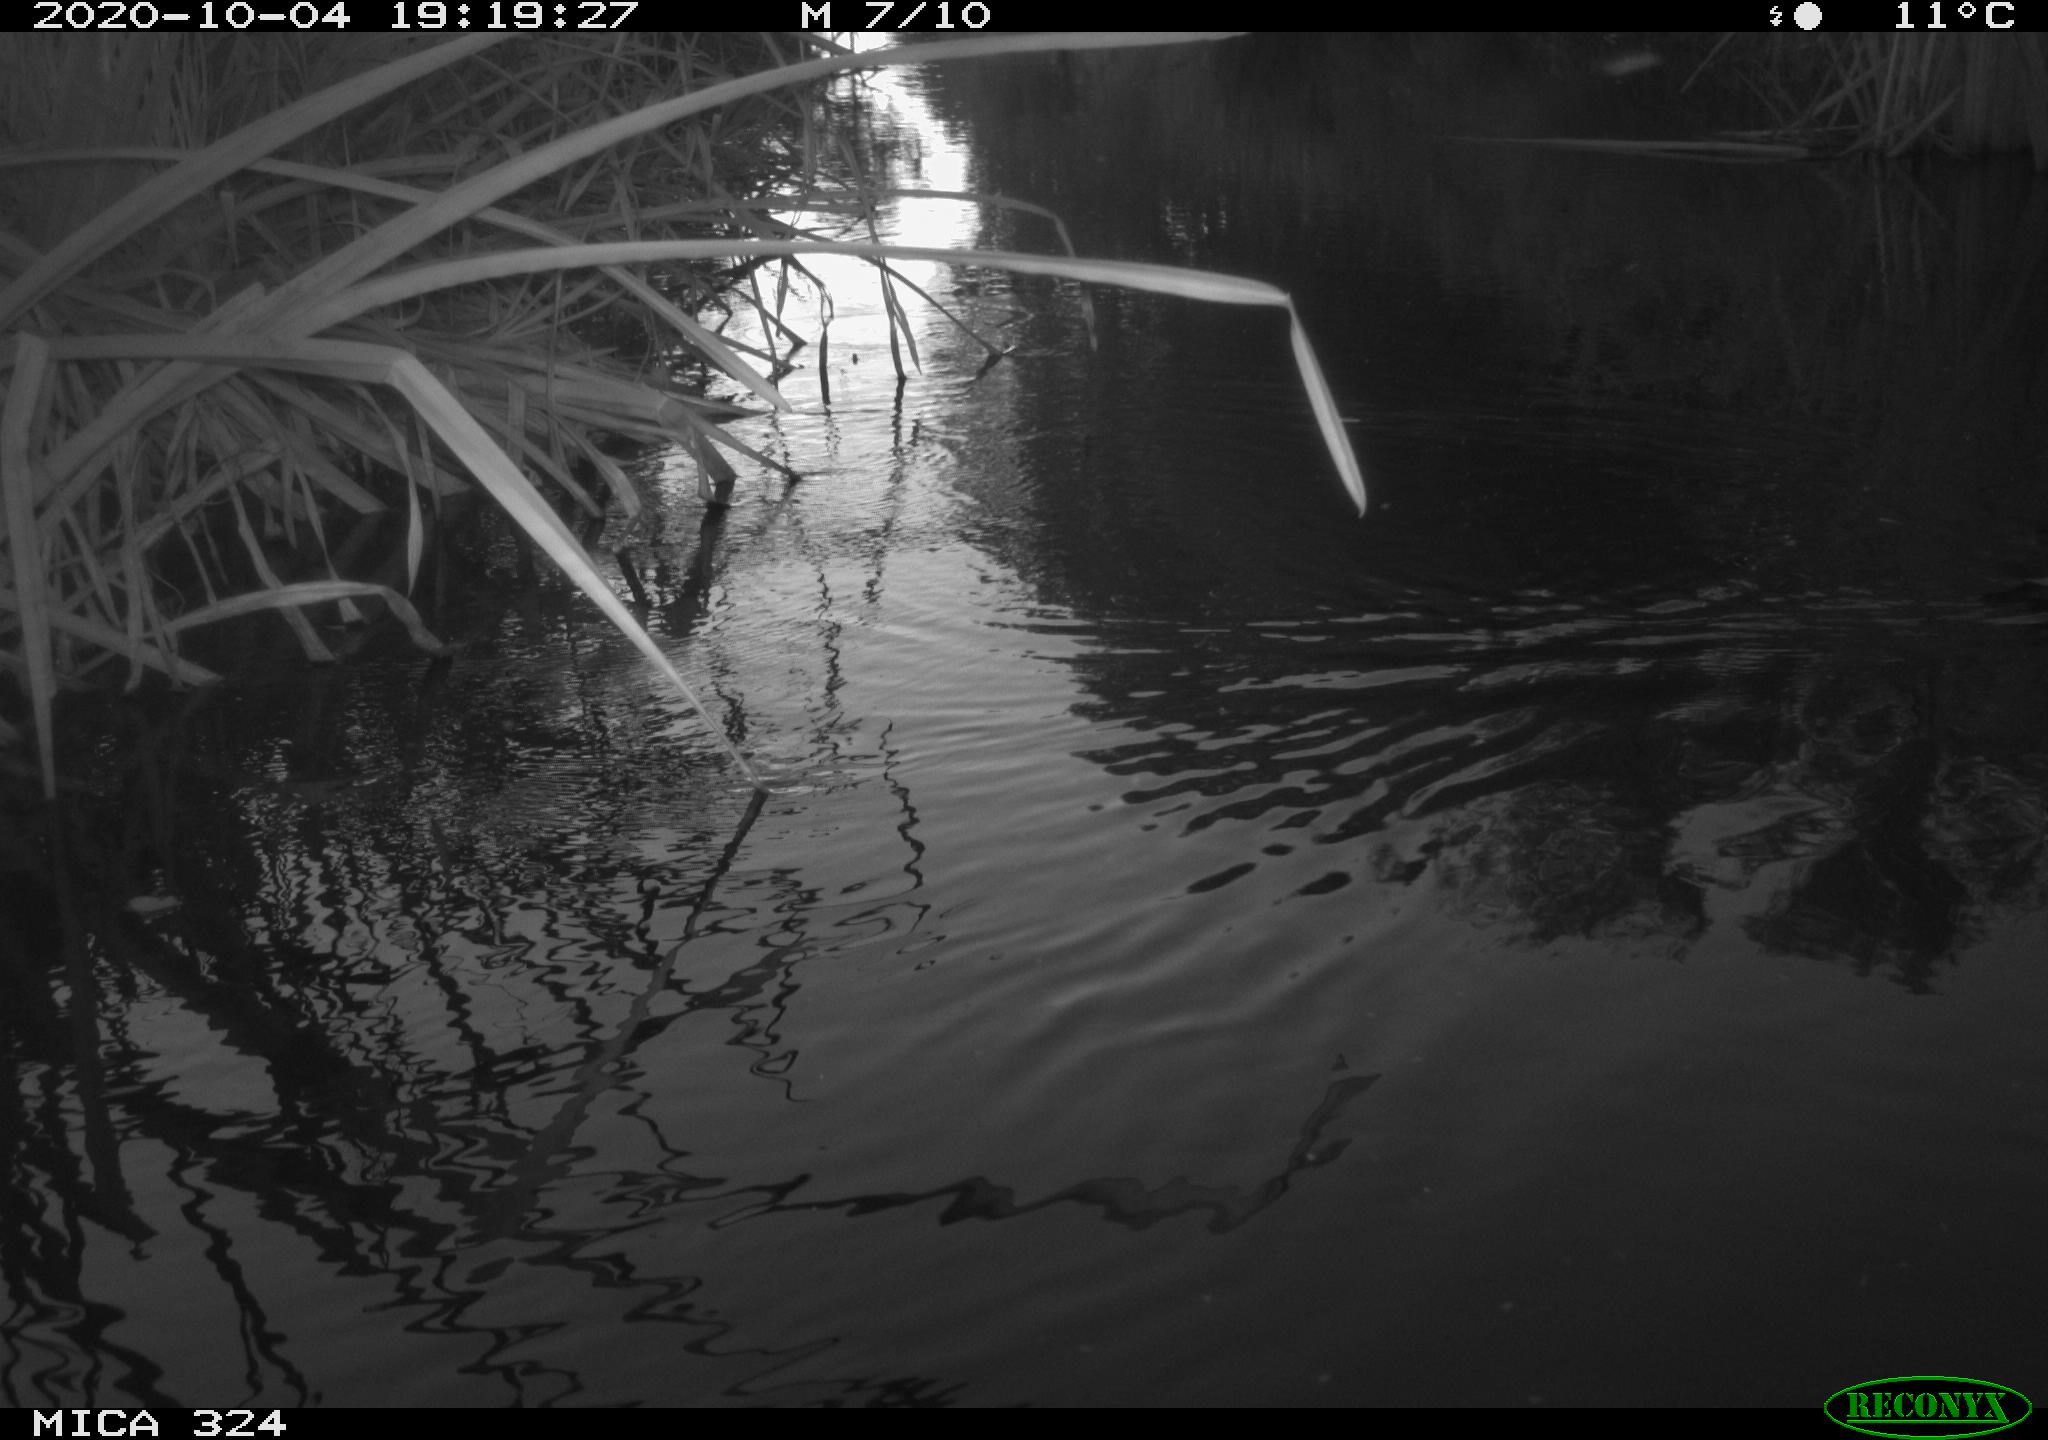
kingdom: Animalia
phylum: Chordata
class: Aves
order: Gruiformes
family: Rallidae
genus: Gallinula
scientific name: Gallinula chloropus
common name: Common moorhen
